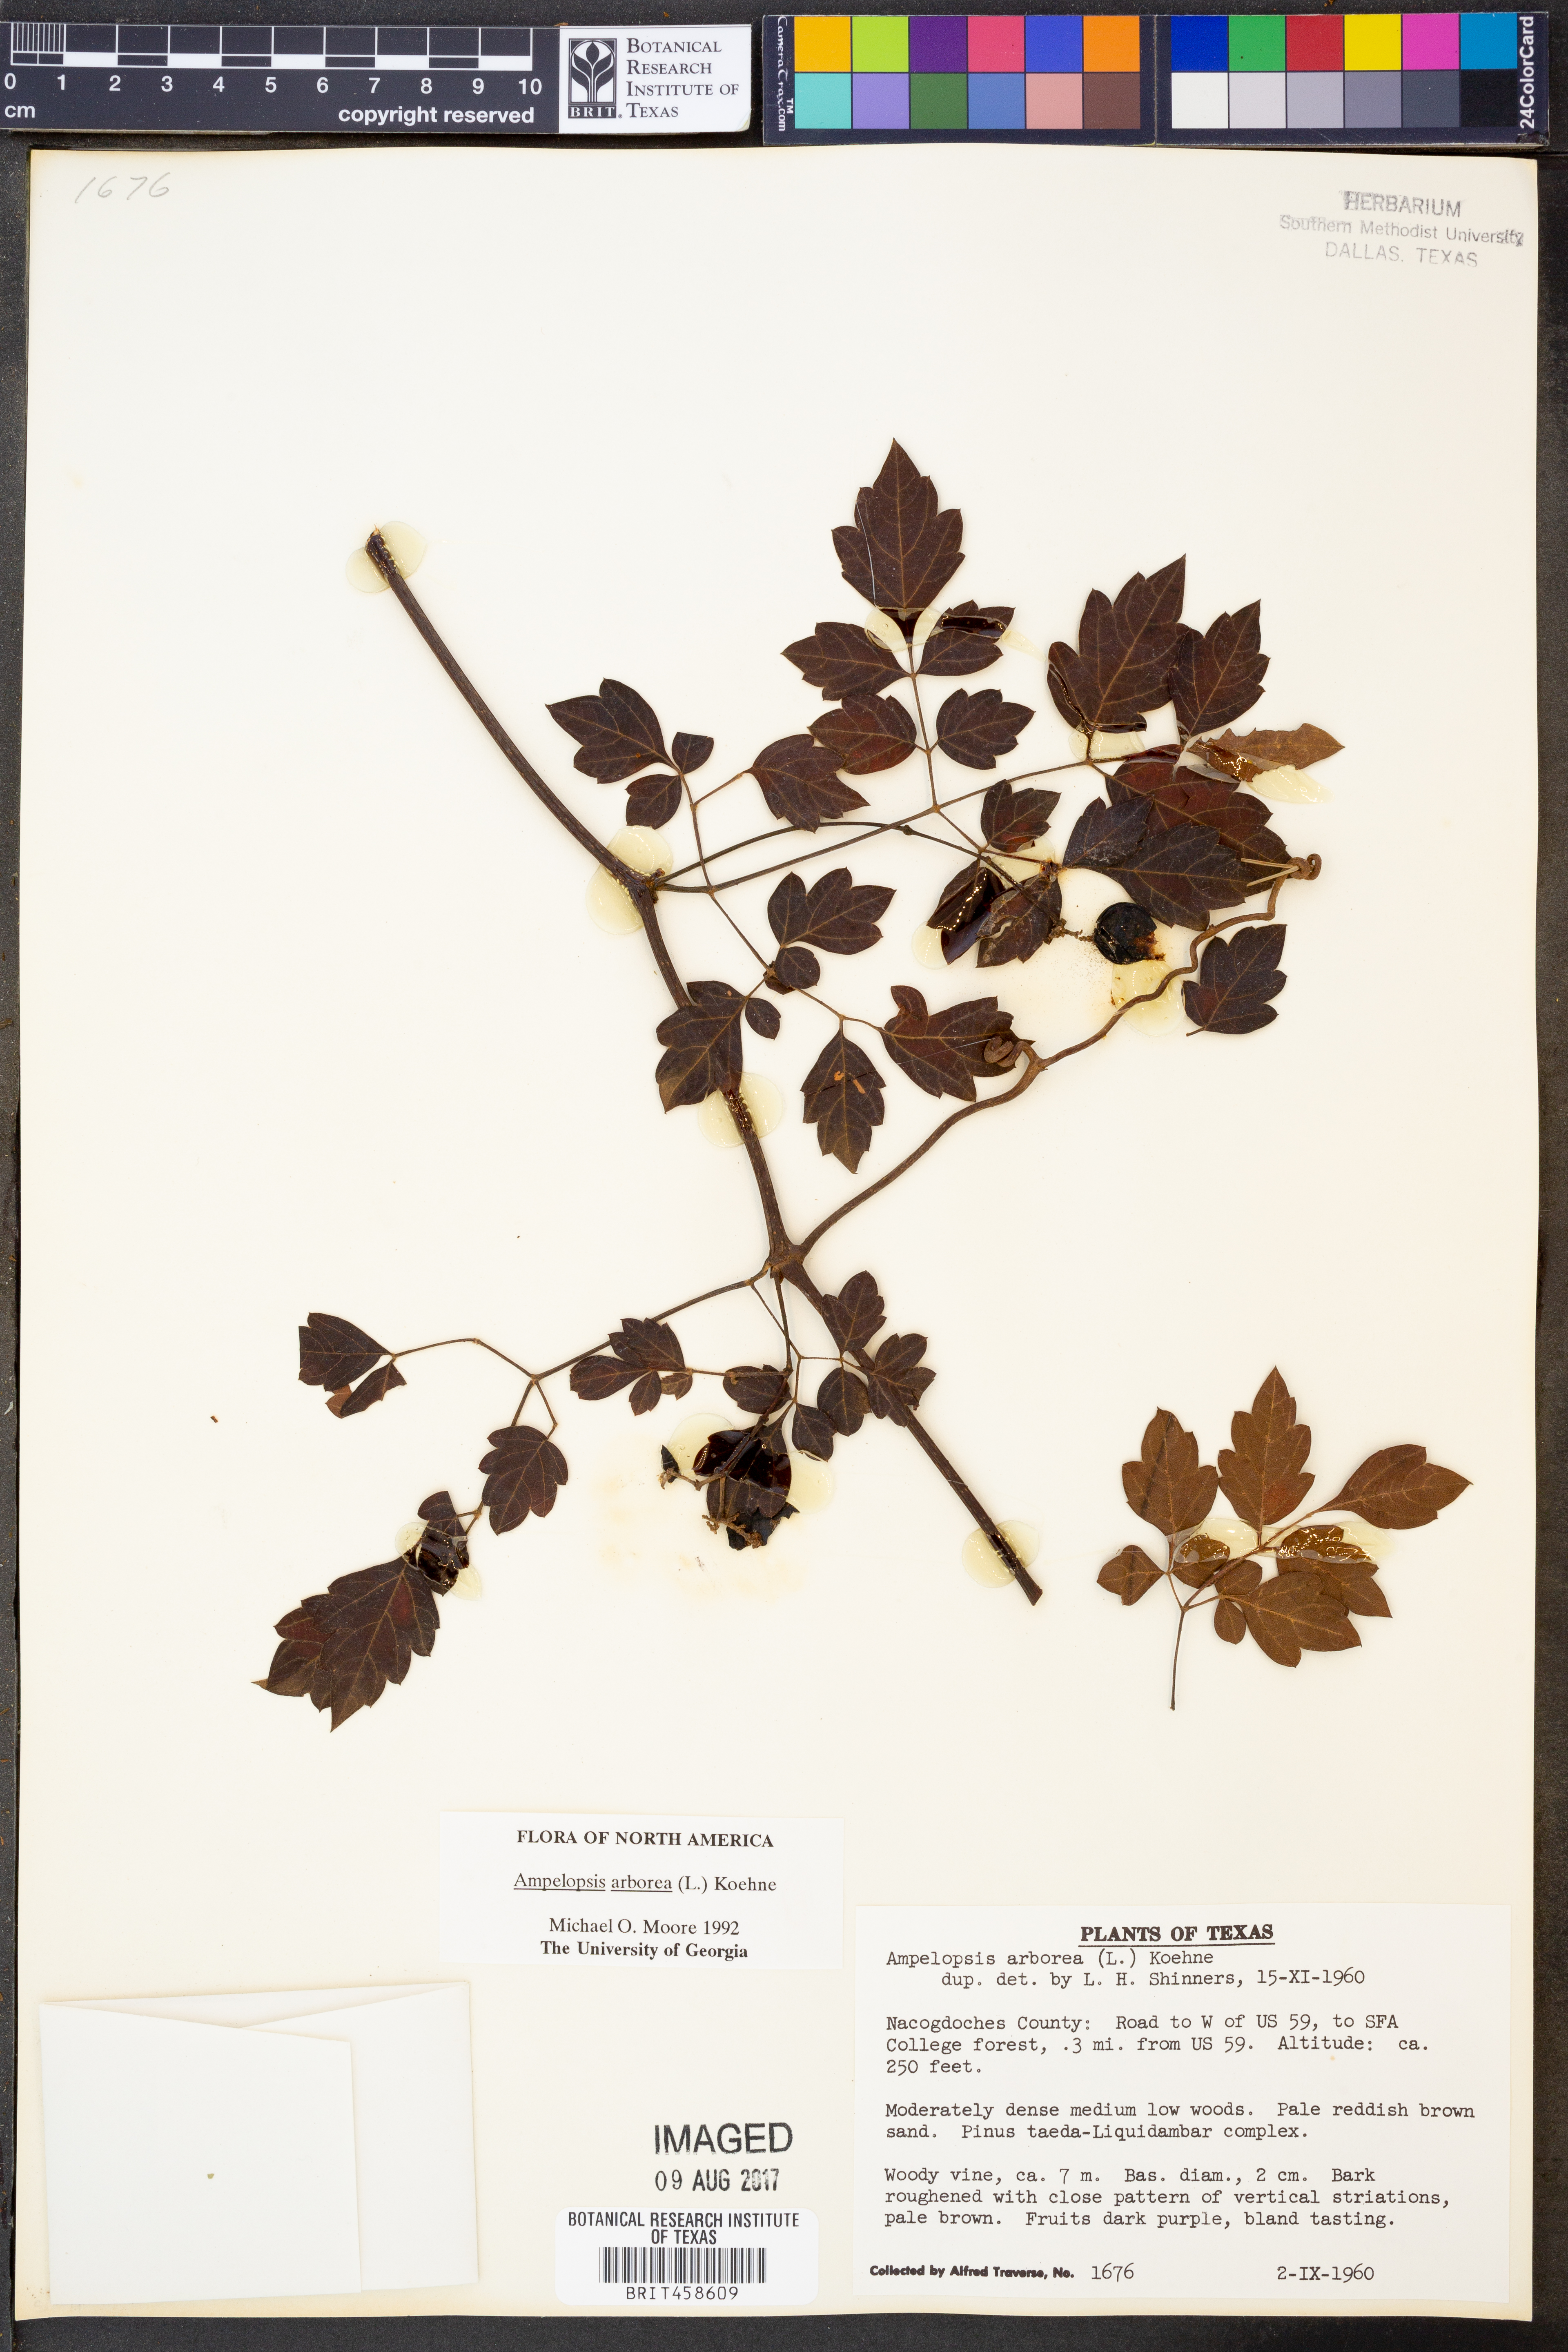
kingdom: Plantae
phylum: Tracheophyta
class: Magnoliopsida
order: Vitales
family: Vitaceae
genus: Nekemias
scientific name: Nekemias arborea
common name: Peppervine
